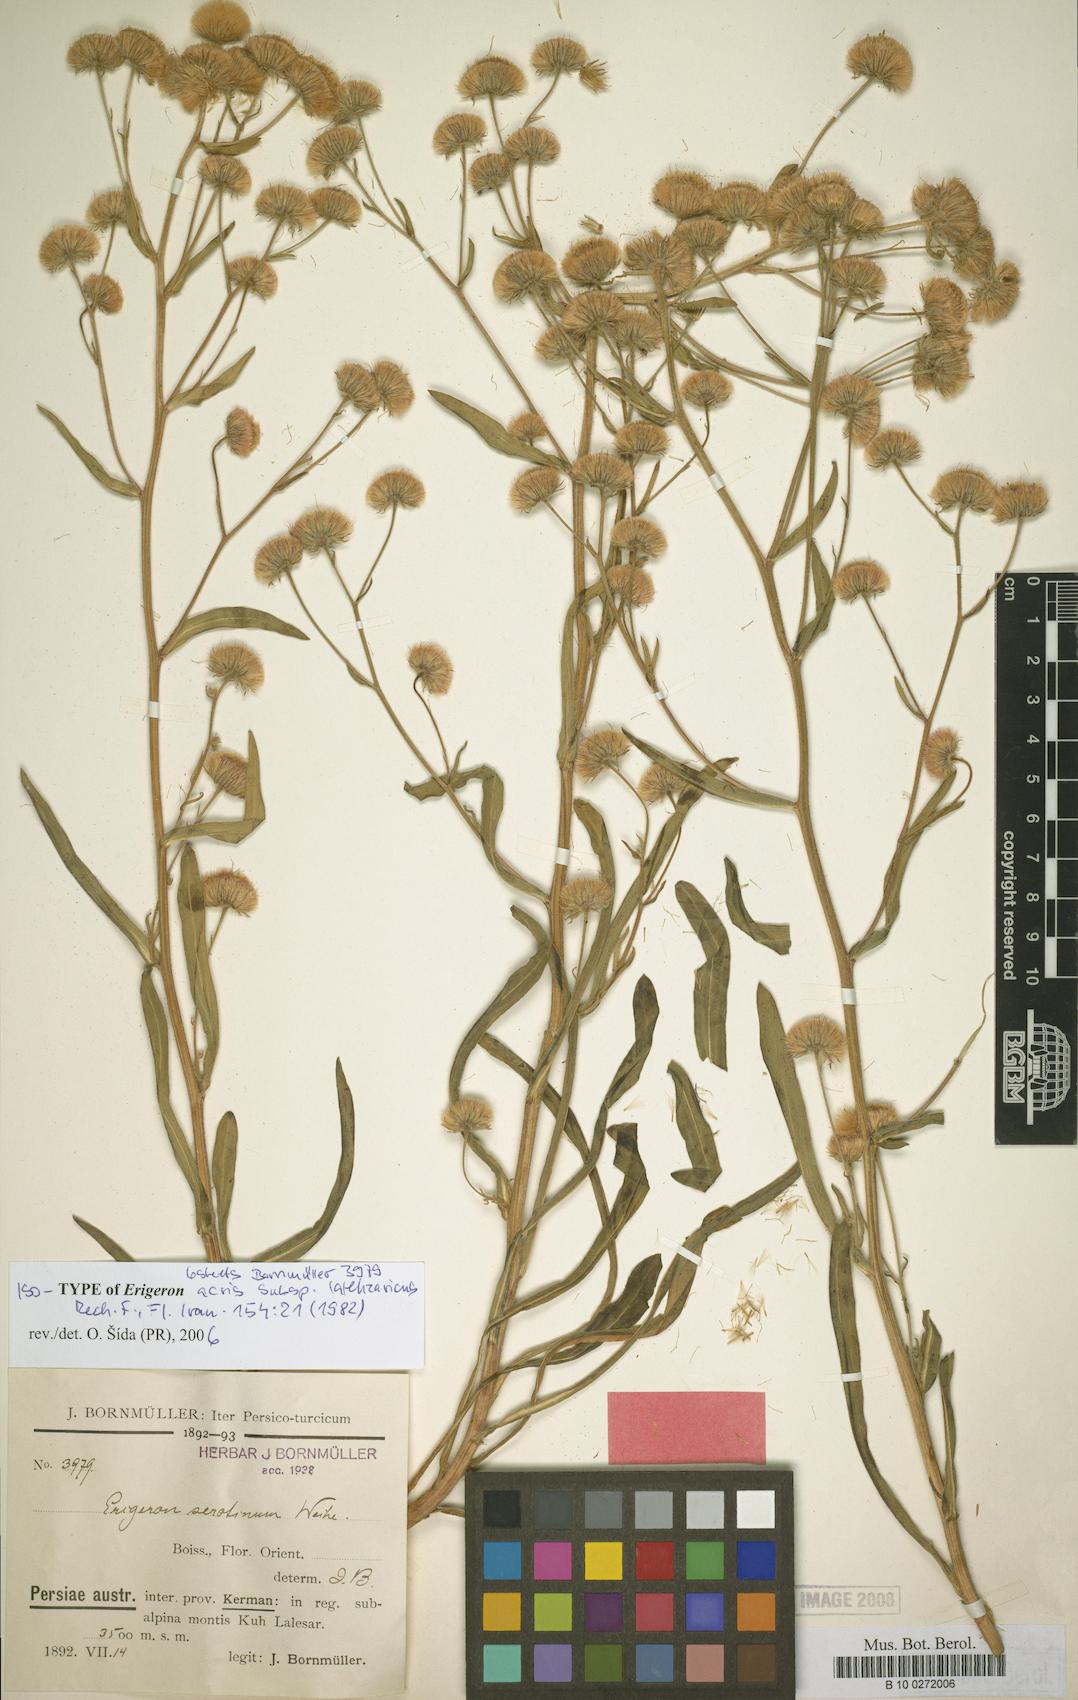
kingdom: Plantae
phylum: Tracheophyta
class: Magnoliopsida
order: Asterales
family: Asteraceae
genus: Erigeron
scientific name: Erigeron lalehzaricus
